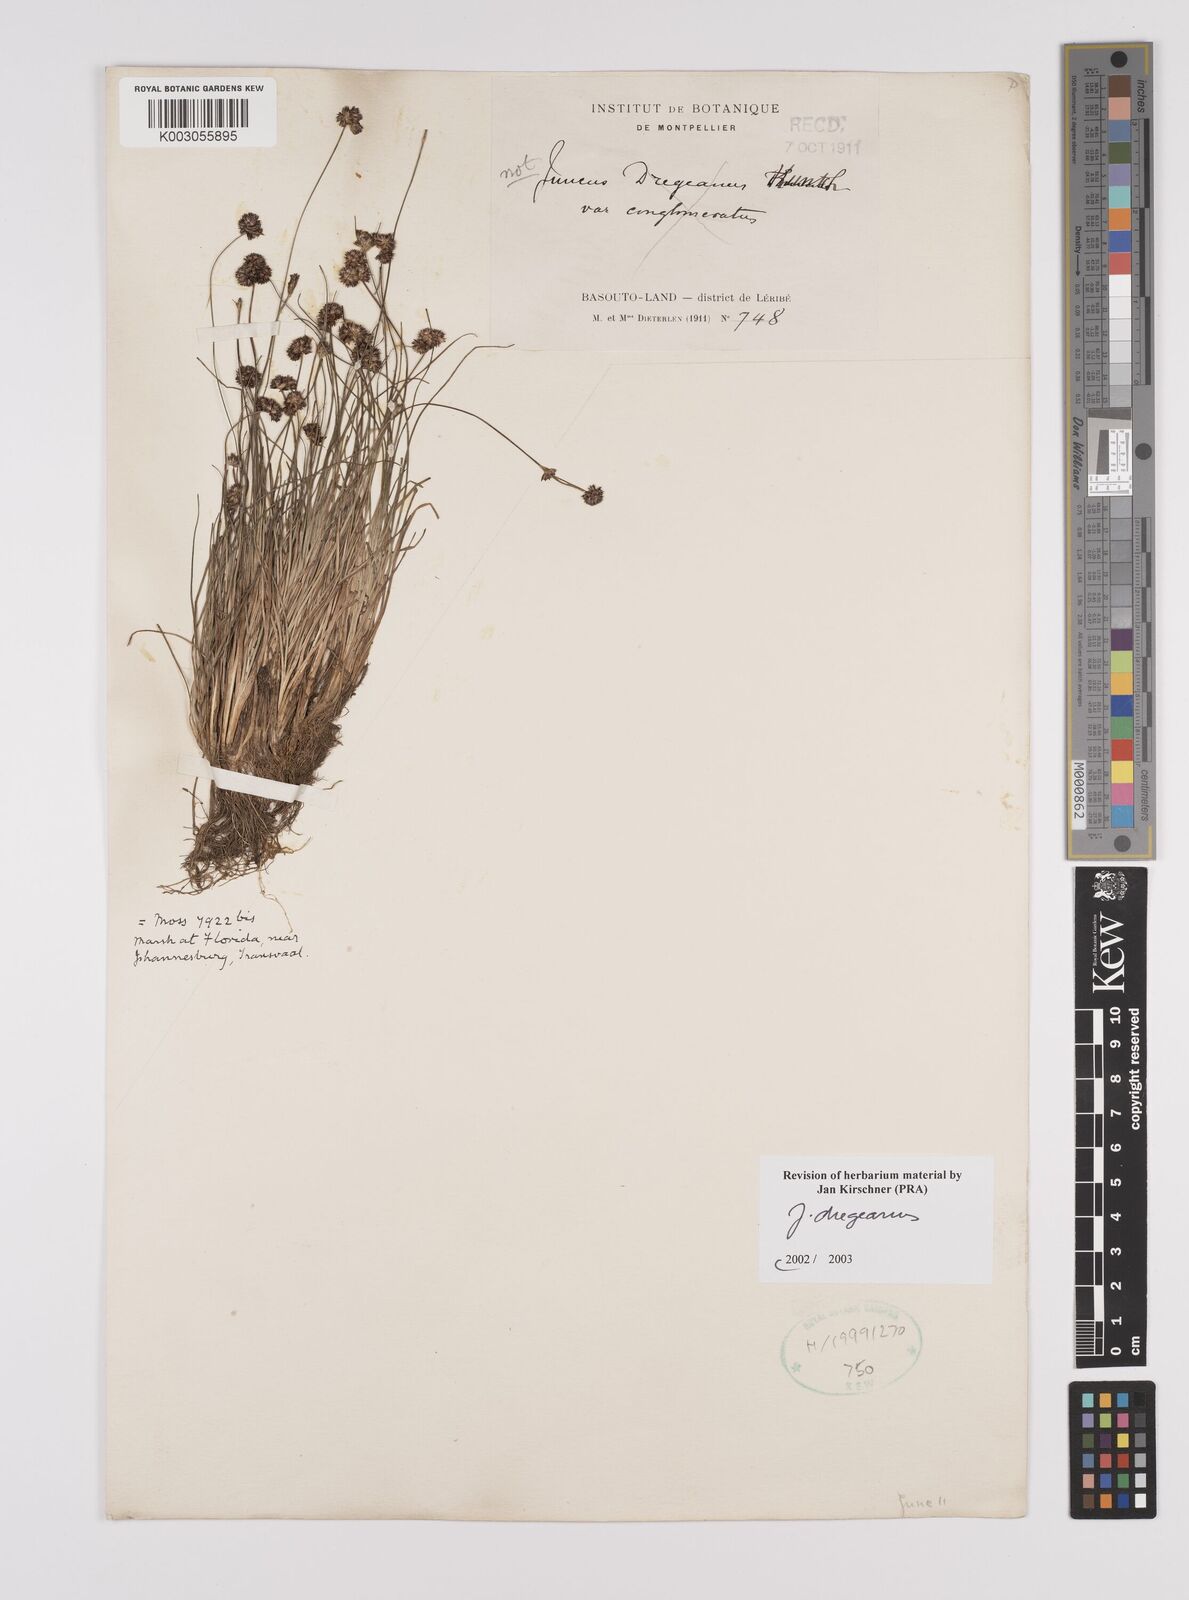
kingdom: Plantae
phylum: Tracheophyta
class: Liliopsida
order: Poales
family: Juncaceae
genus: Juncus
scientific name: Juncus dregeanus
